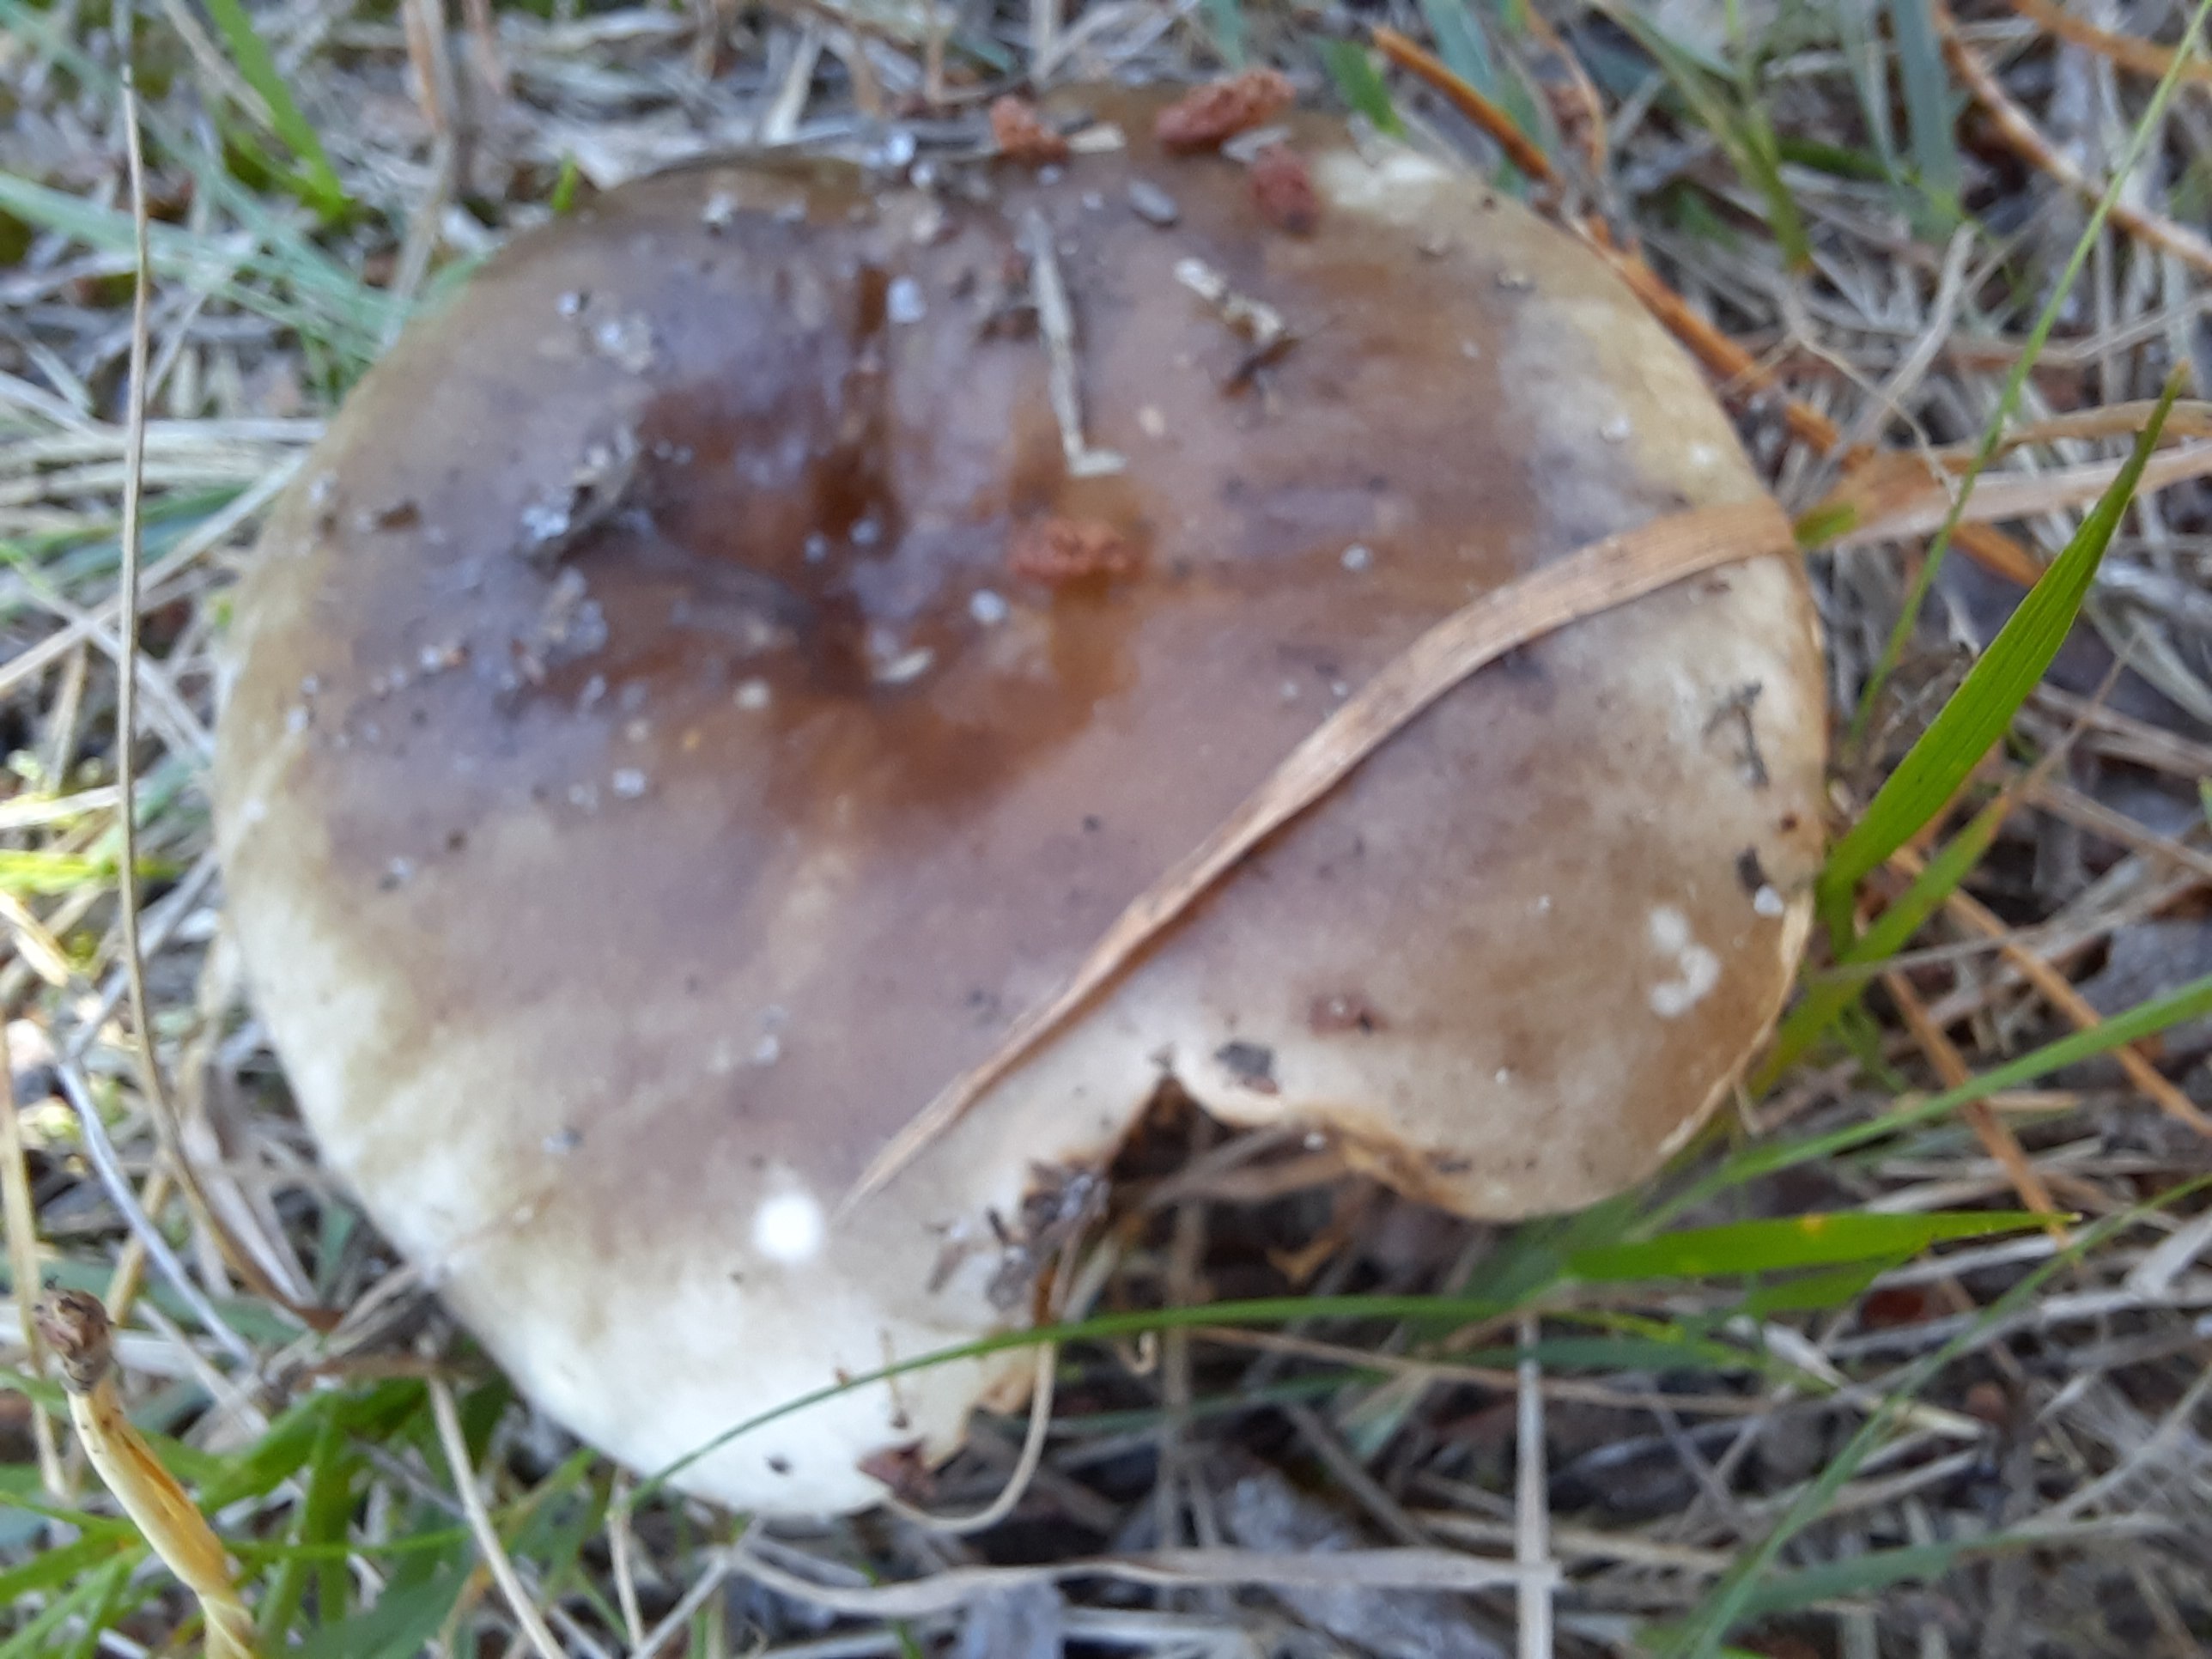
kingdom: Fungi
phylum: Basidiomycota
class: Agaricomycetes
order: Russulales
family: Russulaceae
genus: Russula
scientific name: Russula adusta
